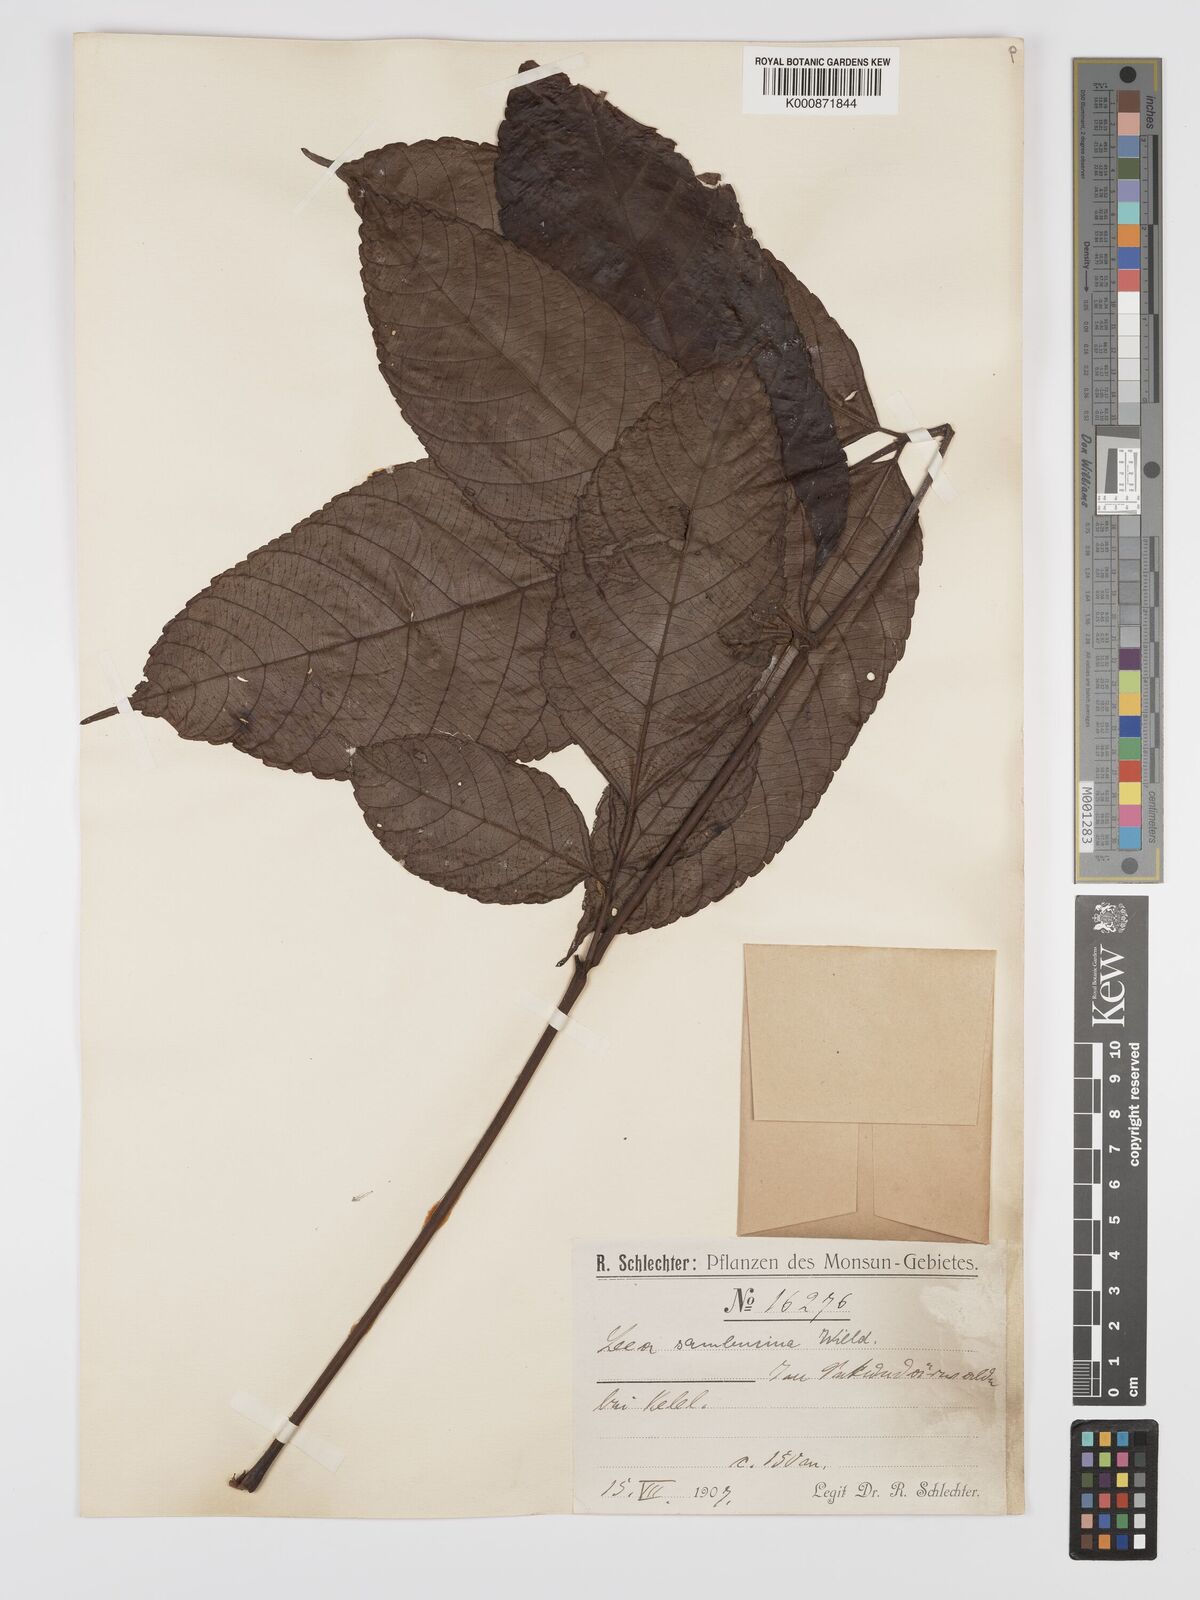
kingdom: Plantae
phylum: Tracheophyta
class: Magnoliopsida
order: Vitales
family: Vitaceae
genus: Leea
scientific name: Leea indica
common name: Bandicoot-berry
